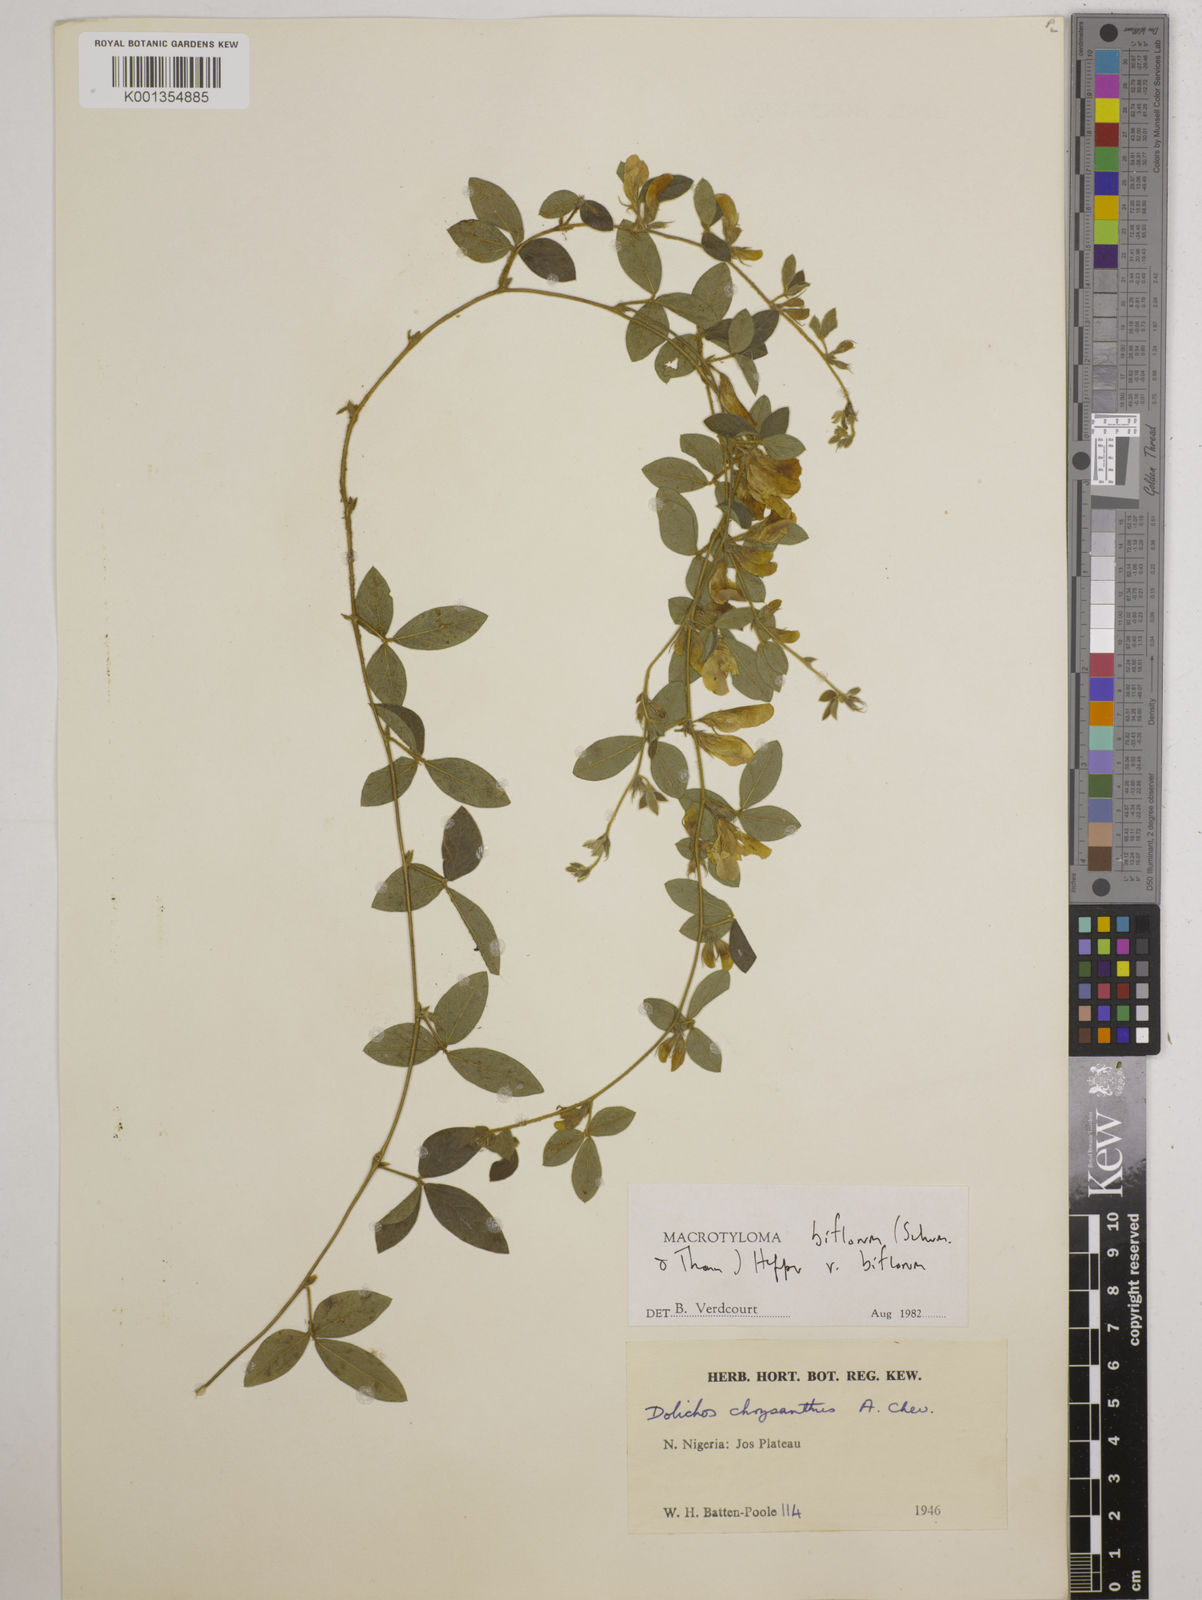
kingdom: Plantae
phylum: Tracheophyta
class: Magnoliopsida
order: Fabales
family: Fabaceae
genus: Macrotyloma
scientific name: Macrotyloma biflorum
